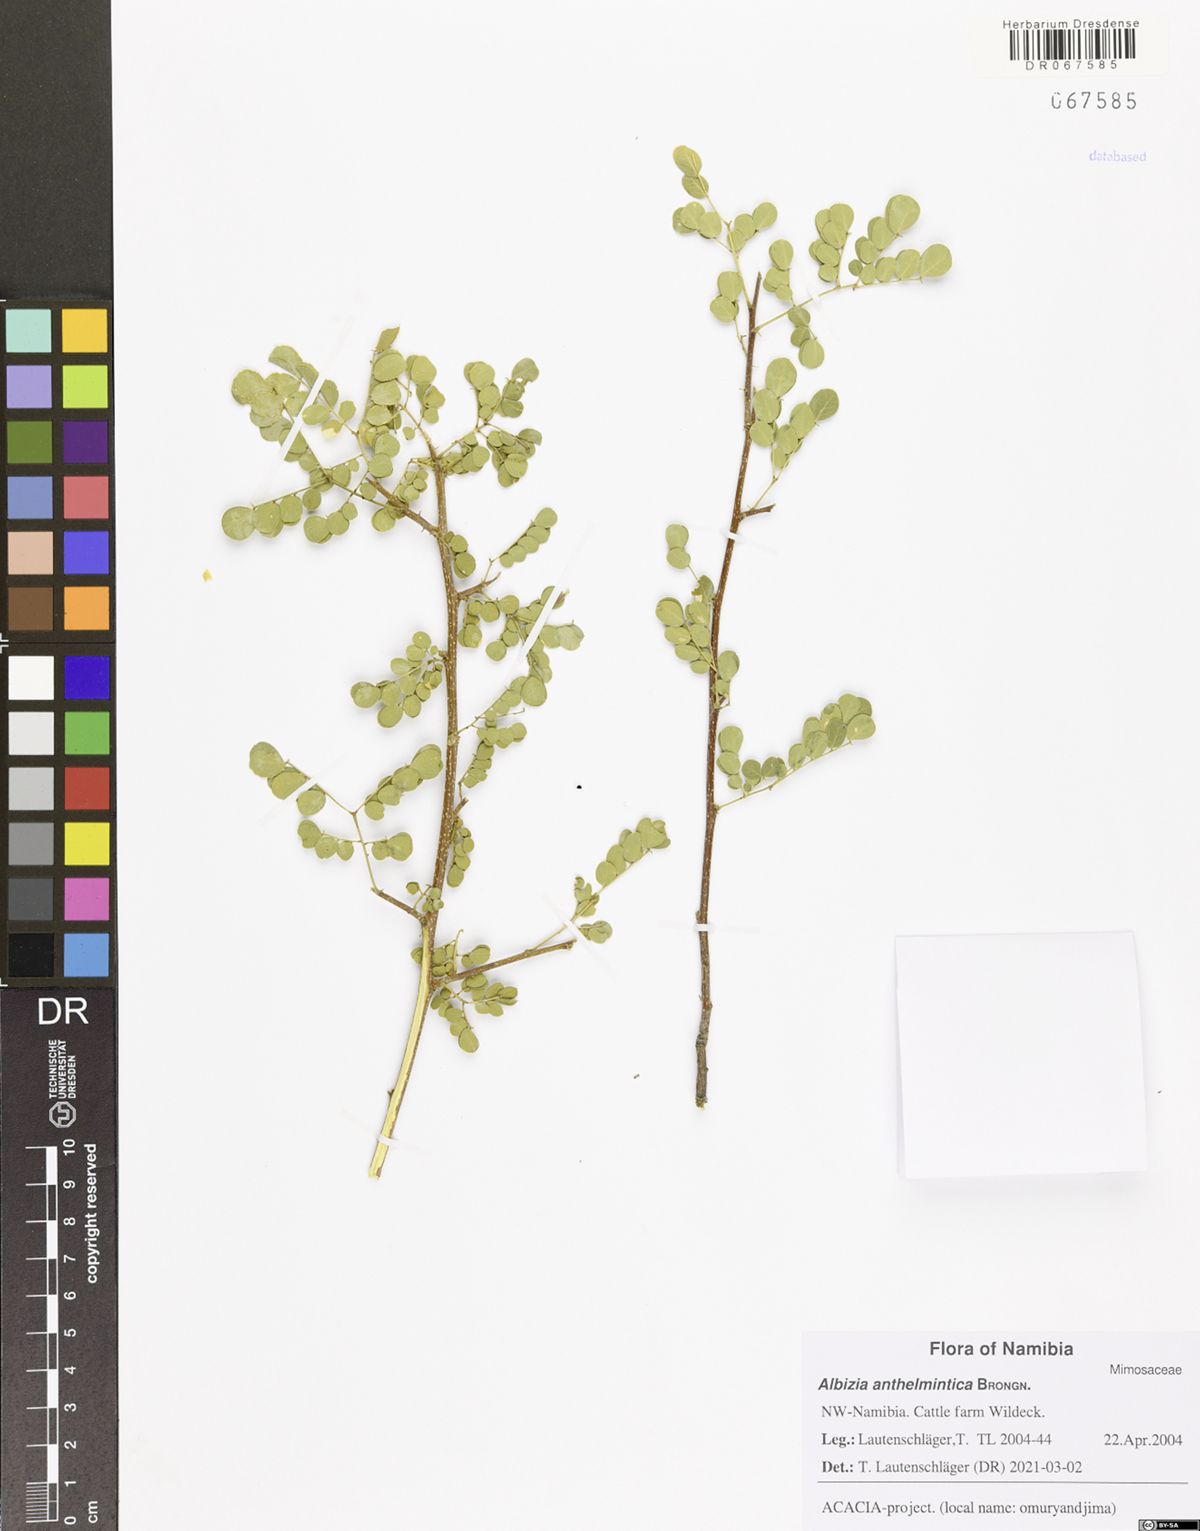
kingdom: Plantae
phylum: Tracheophyta
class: Magnoliopsida
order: Fabales
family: Fabaceae
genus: Albizia
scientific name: Albizia anthelmintica
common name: Worm-bark false-thorn
